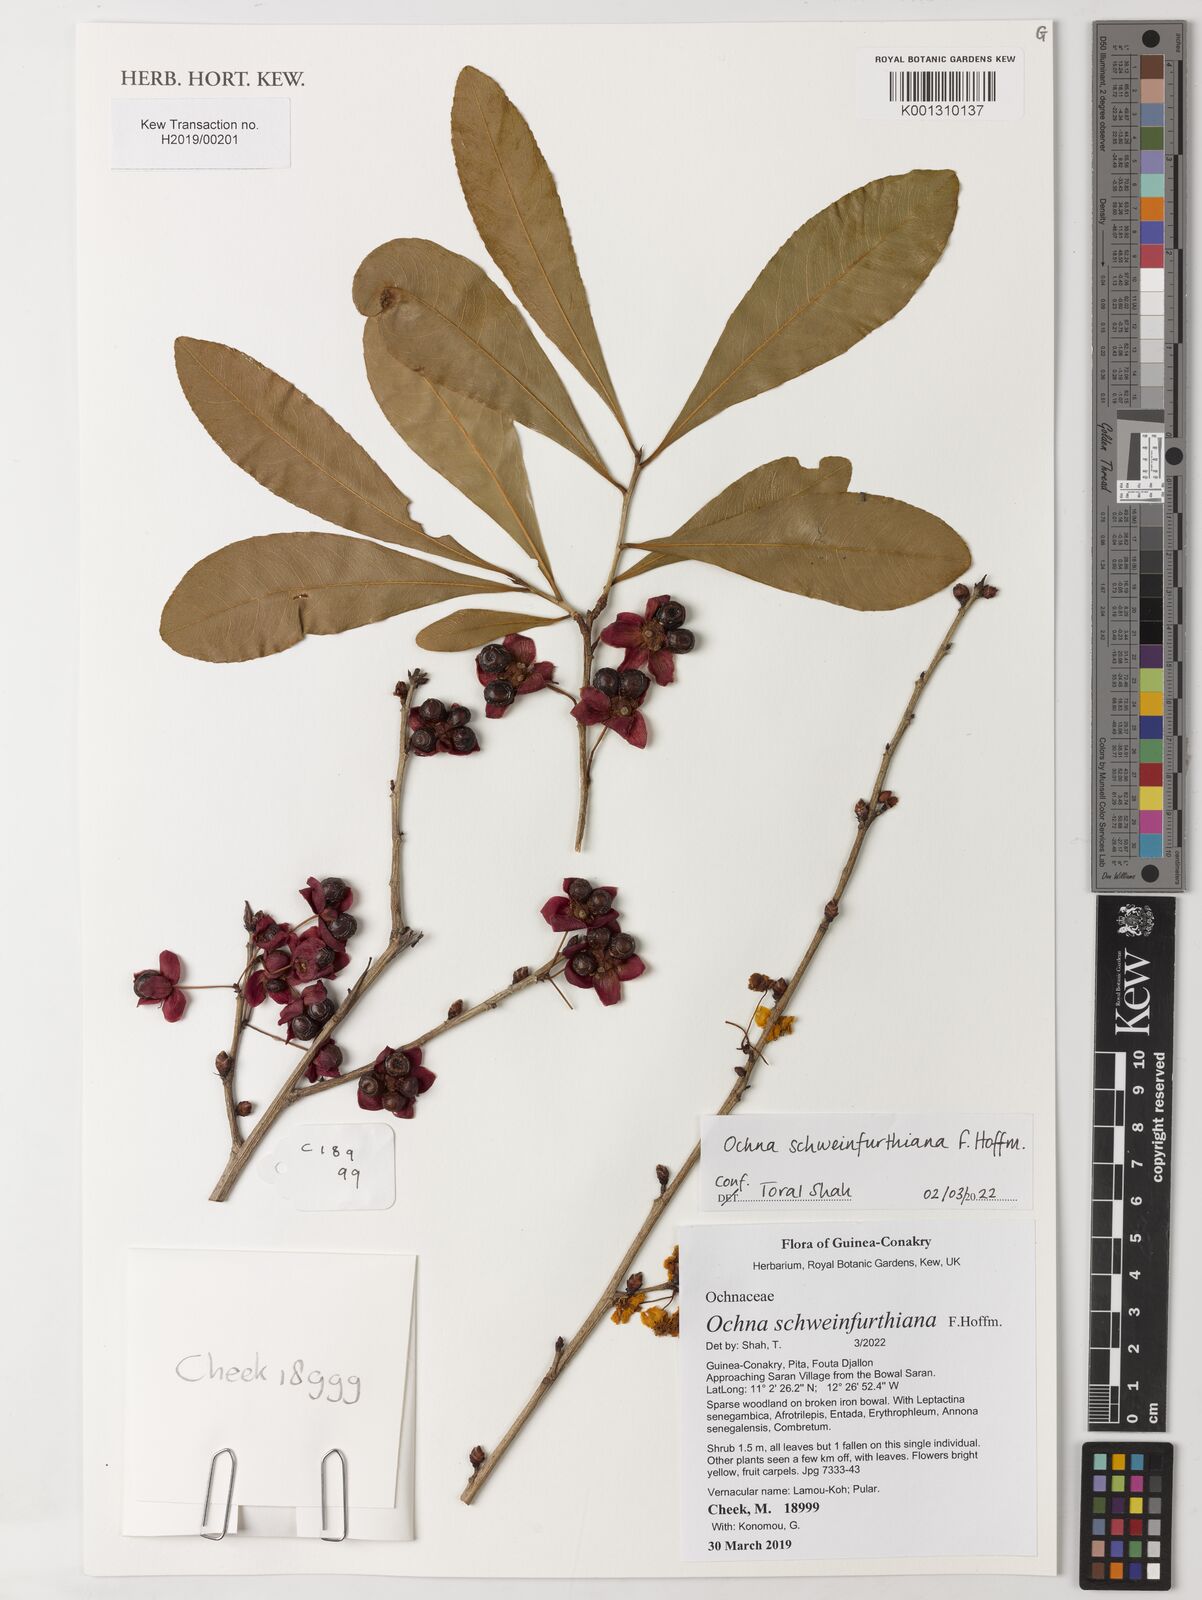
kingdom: Plantae
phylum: Tracheophyta
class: Magnoliopsida
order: Malpighiales
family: Ochnaceae
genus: Ochna
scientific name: Ochna schweinfurthiana
